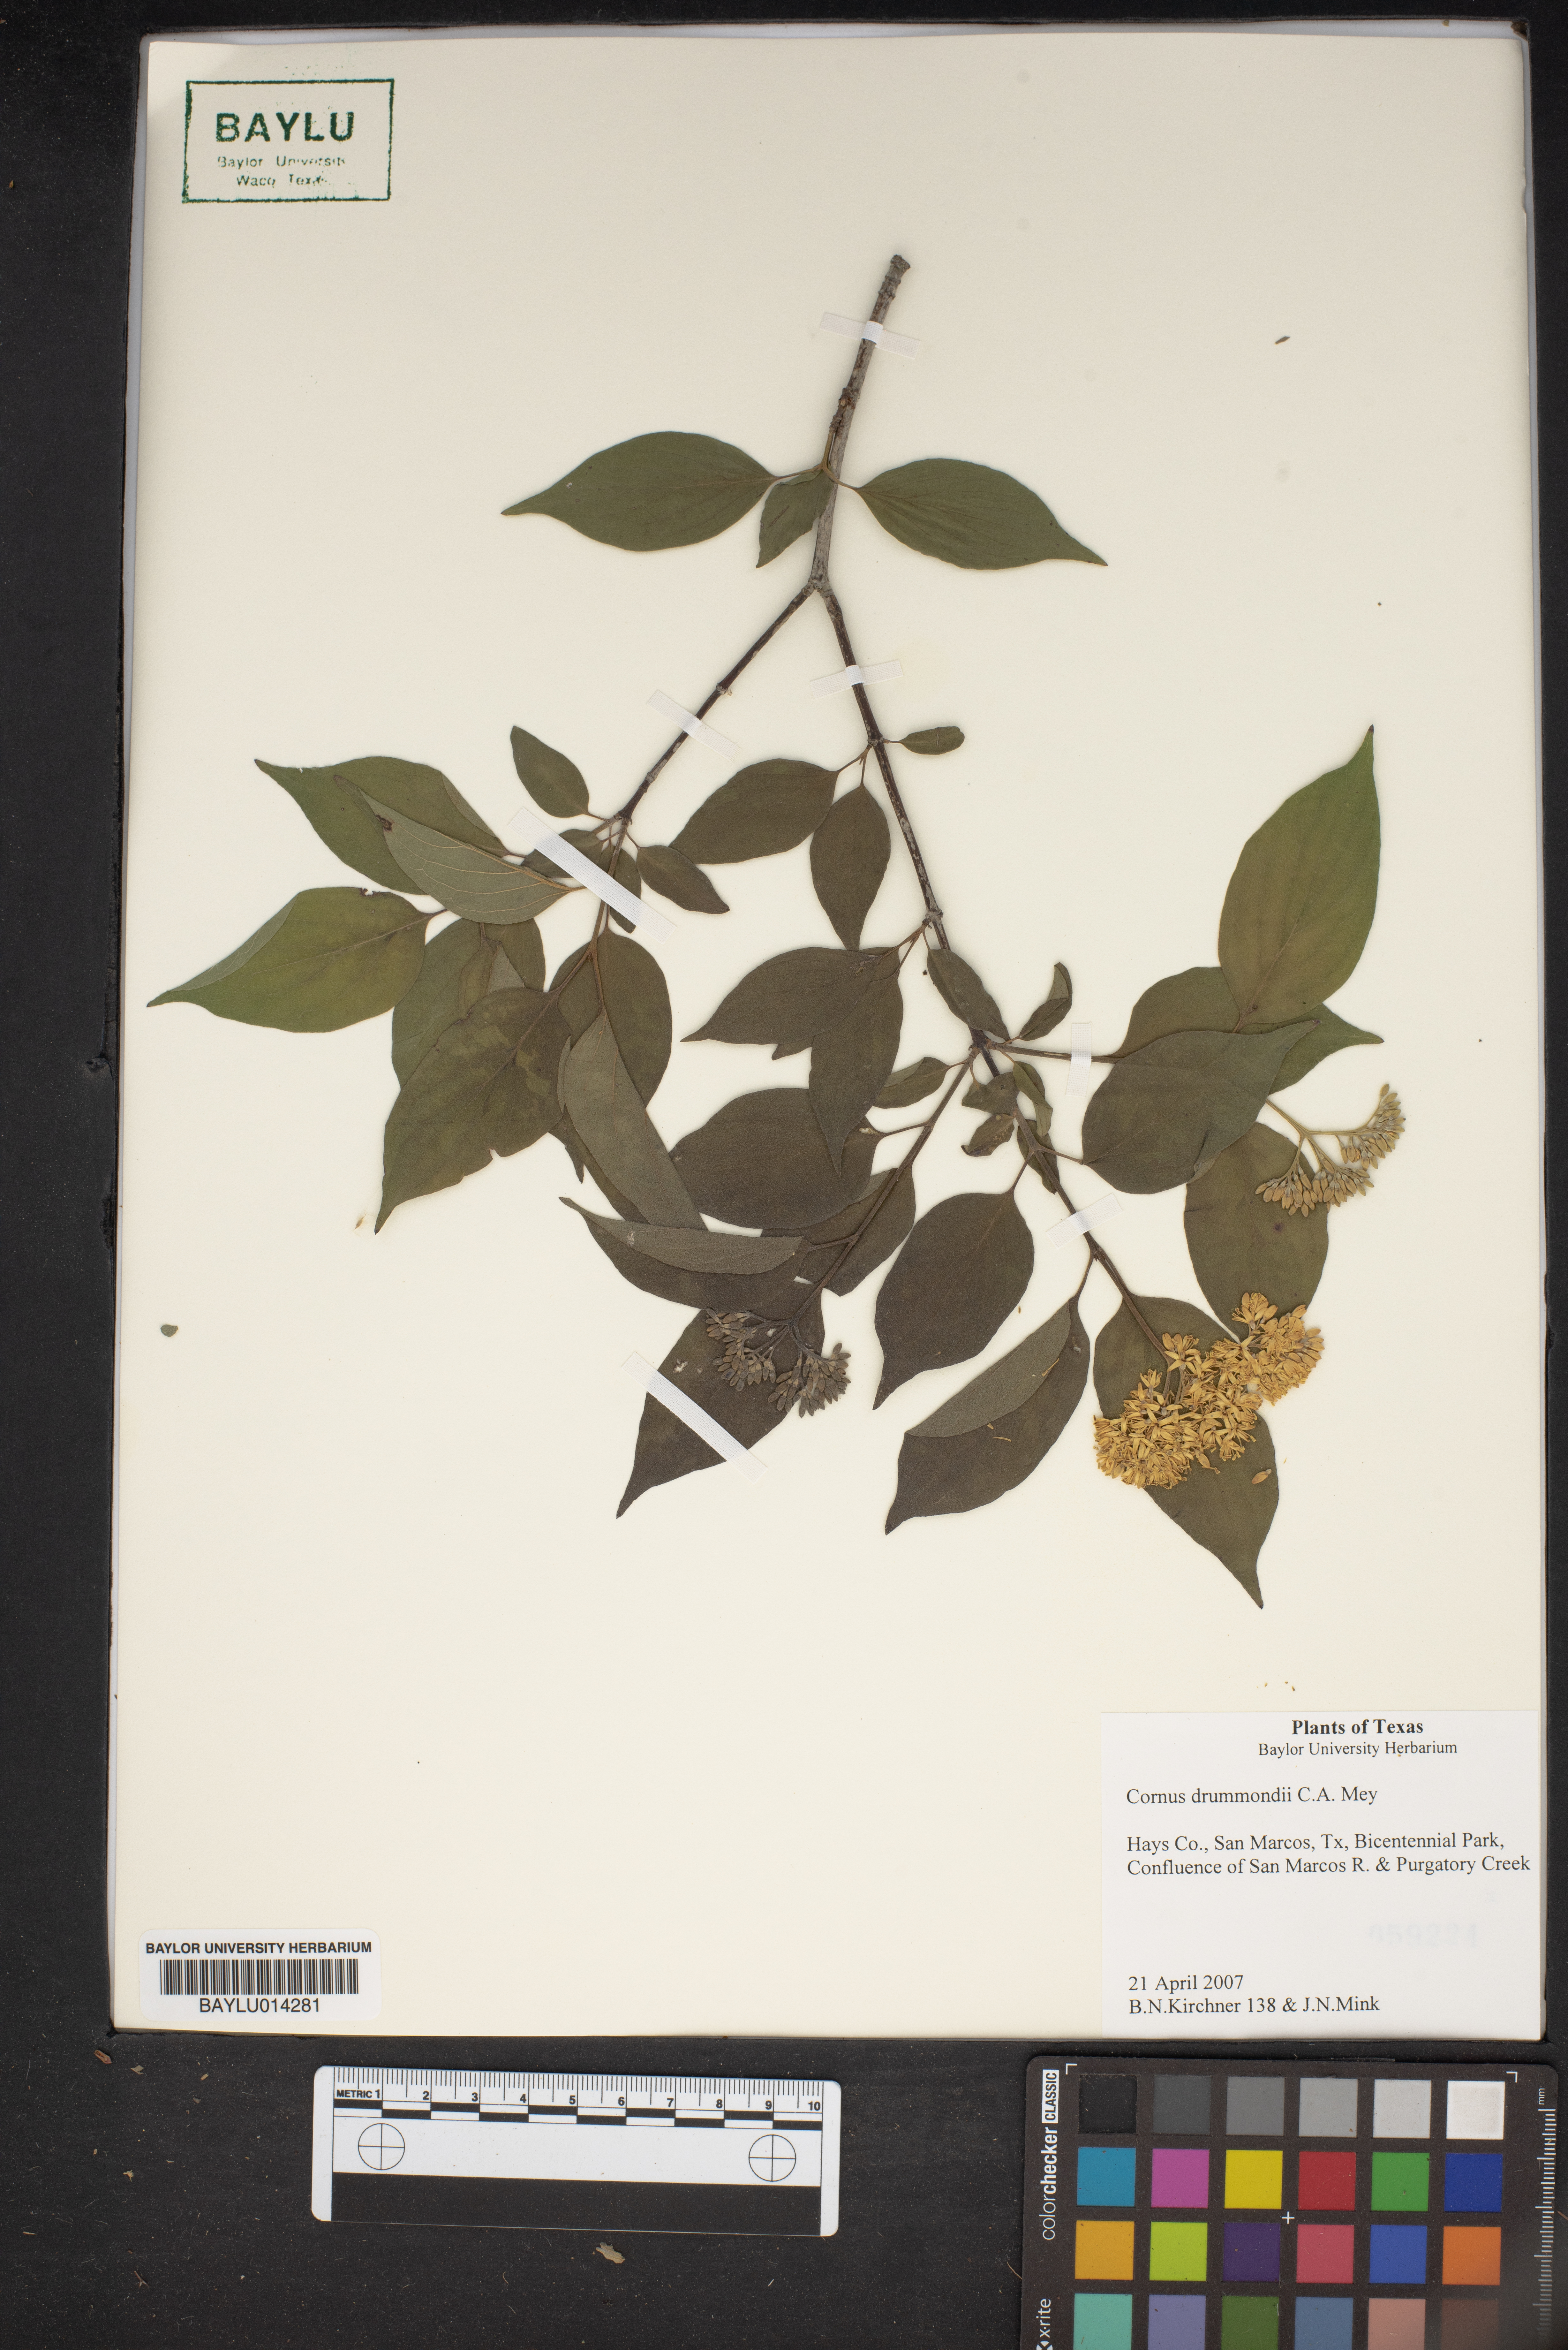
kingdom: Plantae
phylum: Tracheophyta
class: Magnoliopsida
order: Cornales
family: Cornaceae
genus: Cornus
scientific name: Cornus drummondii
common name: Rough-leaf dogwood
